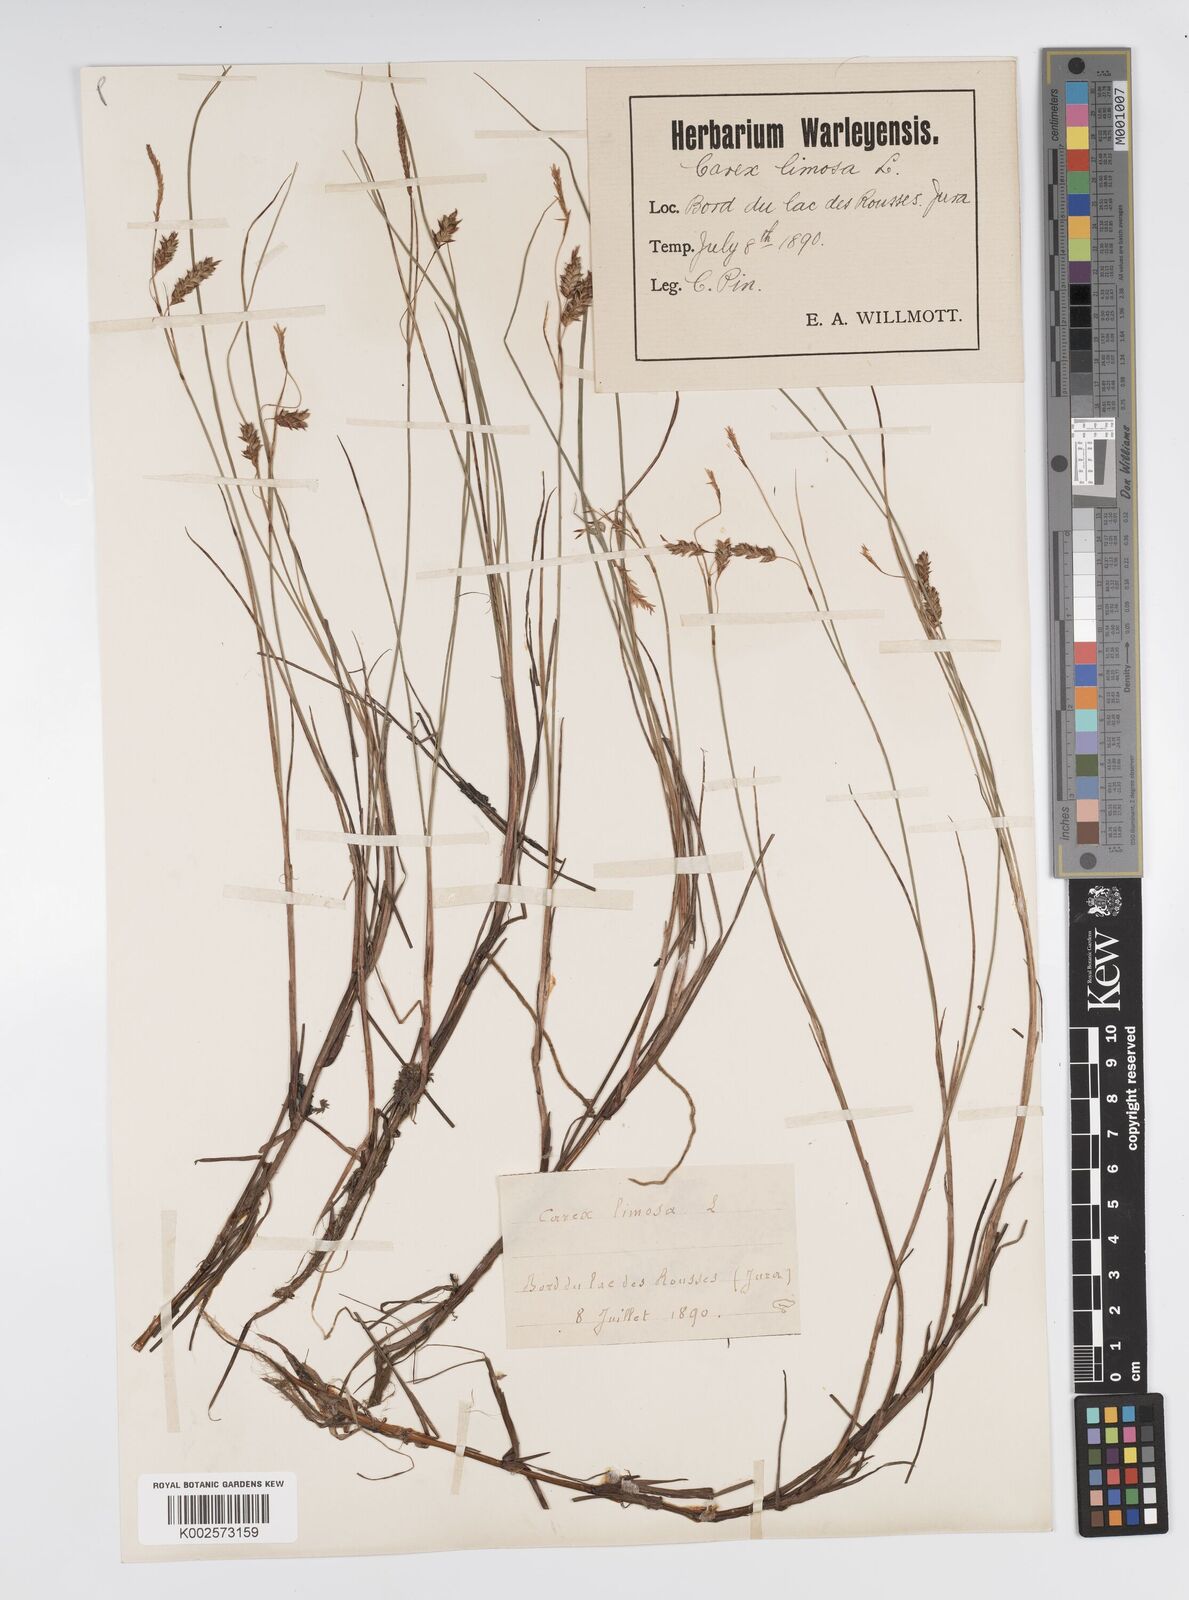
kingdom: Plantae
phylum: Tracheophyta
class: Liliopsida
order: Poales
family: Cyperaceae
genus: Carex
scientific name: Carex limosa
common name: Bog sedge
